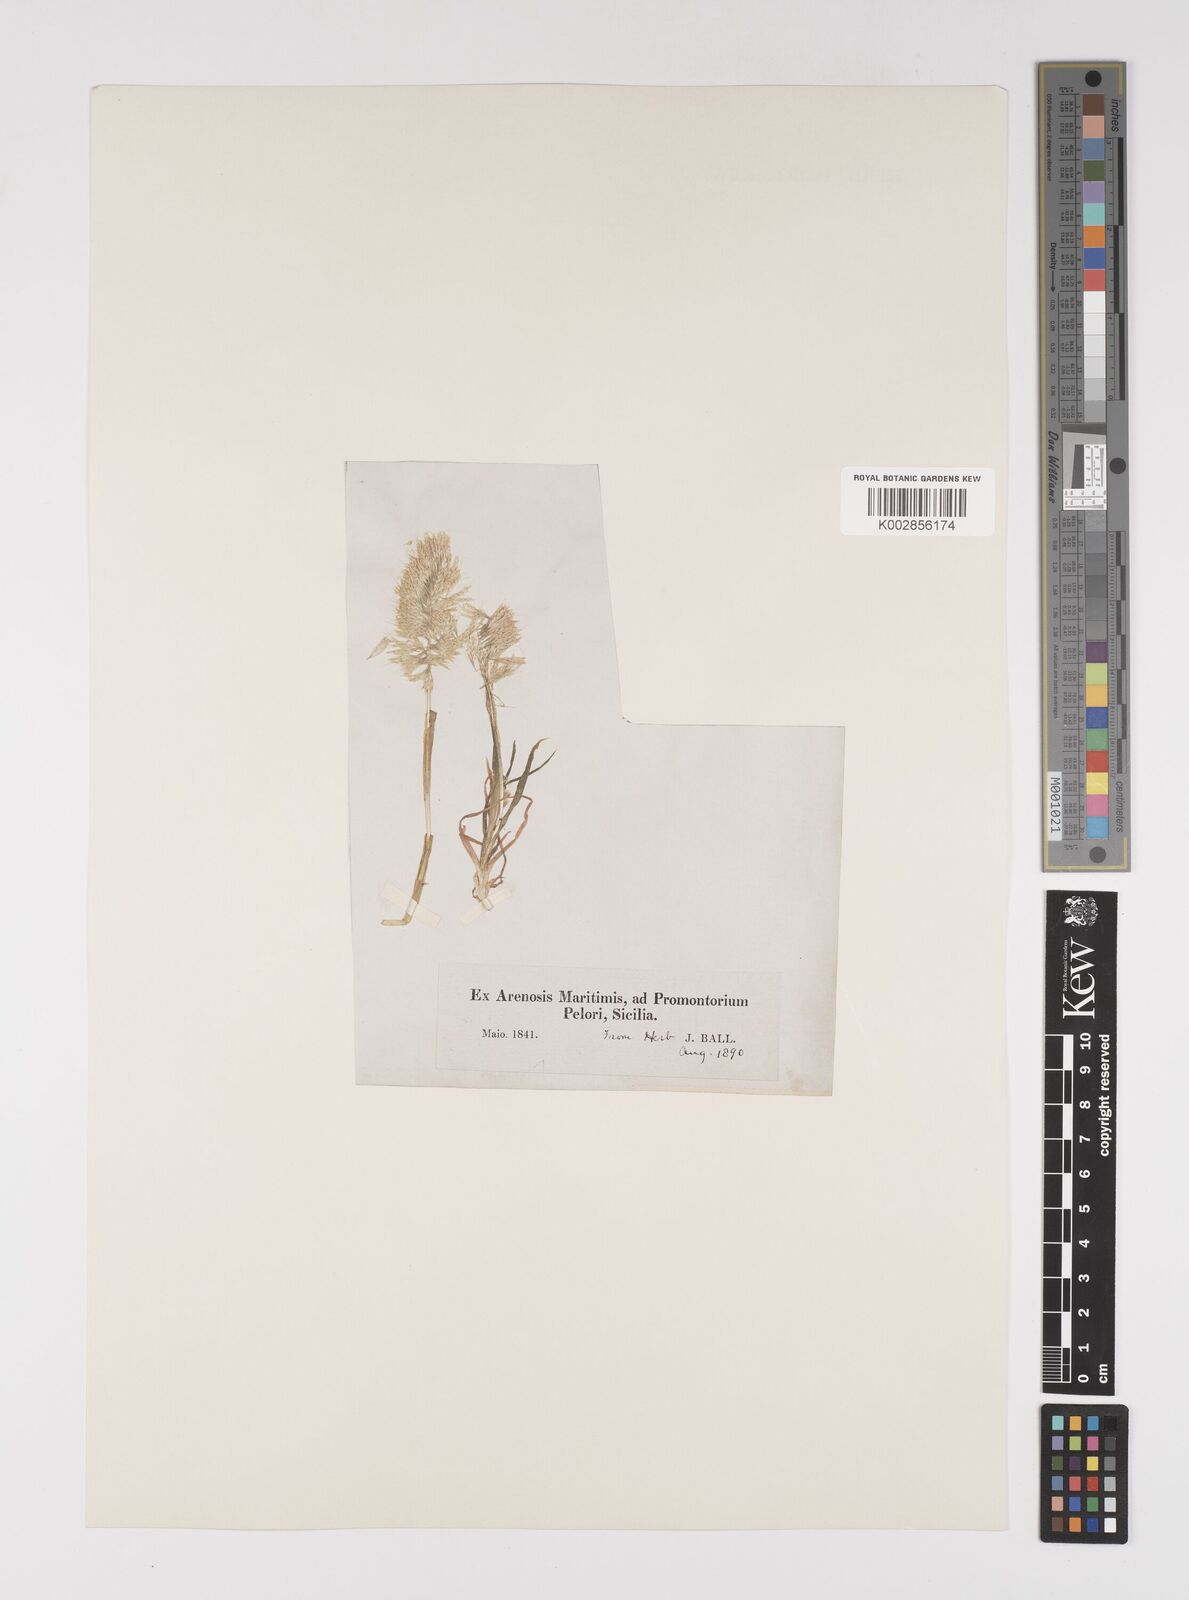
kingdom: Plantae
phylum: Tracheophyta
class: Liliopsida
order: Poales
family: Poaceae
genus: Lamarckia
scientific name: Lamarckia aurea
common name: Golden dog's-tail
